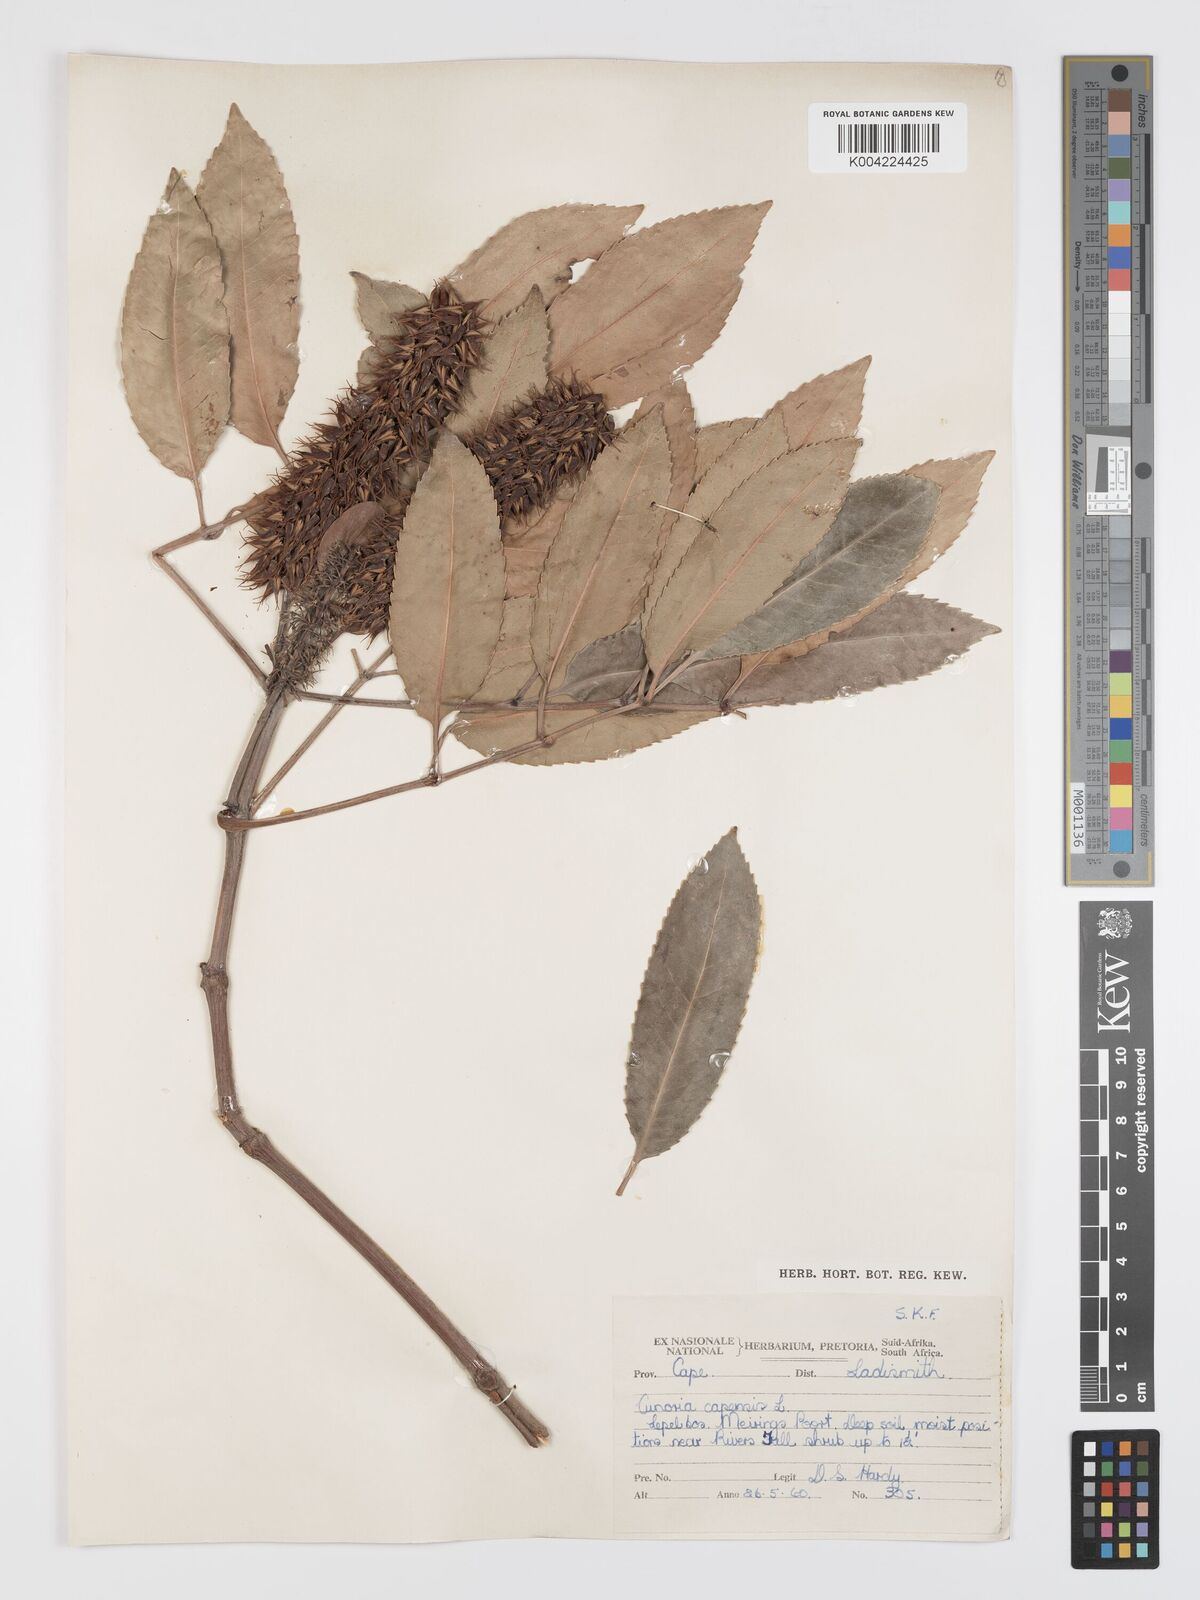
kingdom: Plantae
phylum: Tracheophyta
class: Magnoliopsida
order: Oxalidales
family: Cunoniaceae
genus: Cunonia
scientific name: Cunonia capensis
